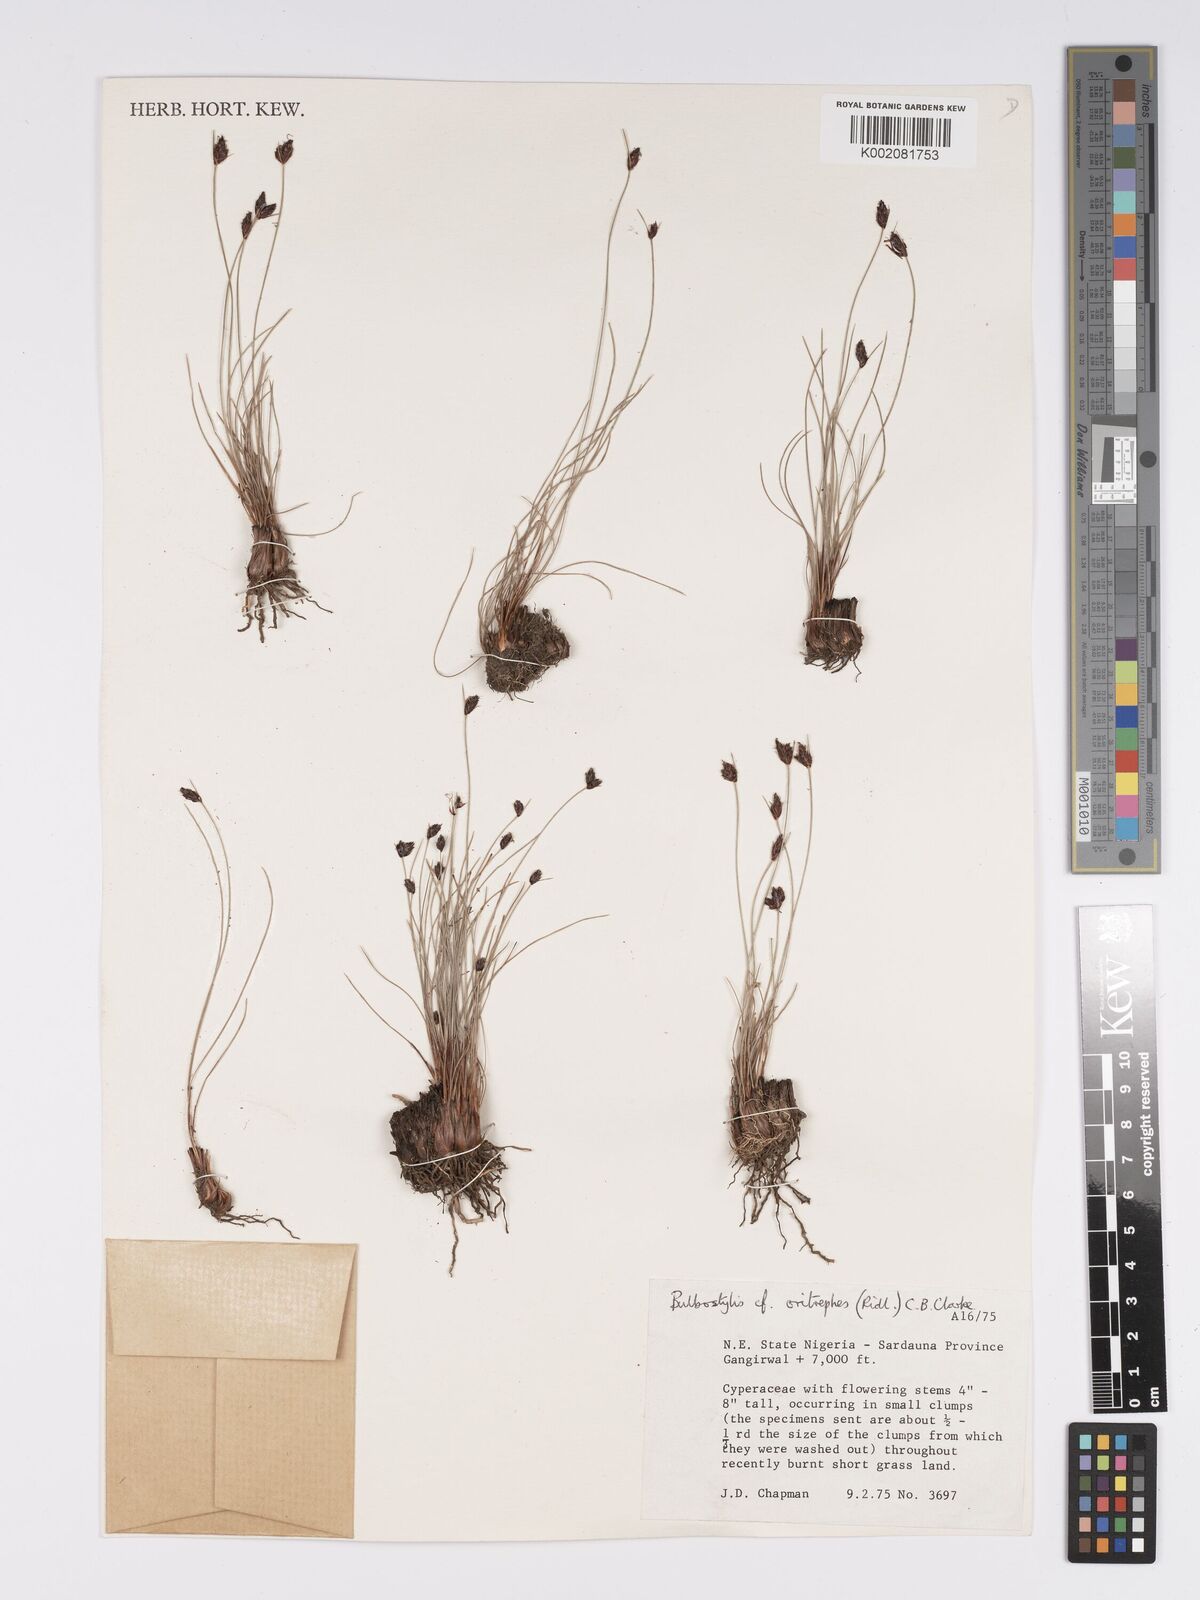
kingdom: Plantae
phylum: Tracheophyta
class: Liliopsida
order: Poales
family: Cyperaceae
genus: Bulbostylis
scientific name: Bulbostylis oritrephes
